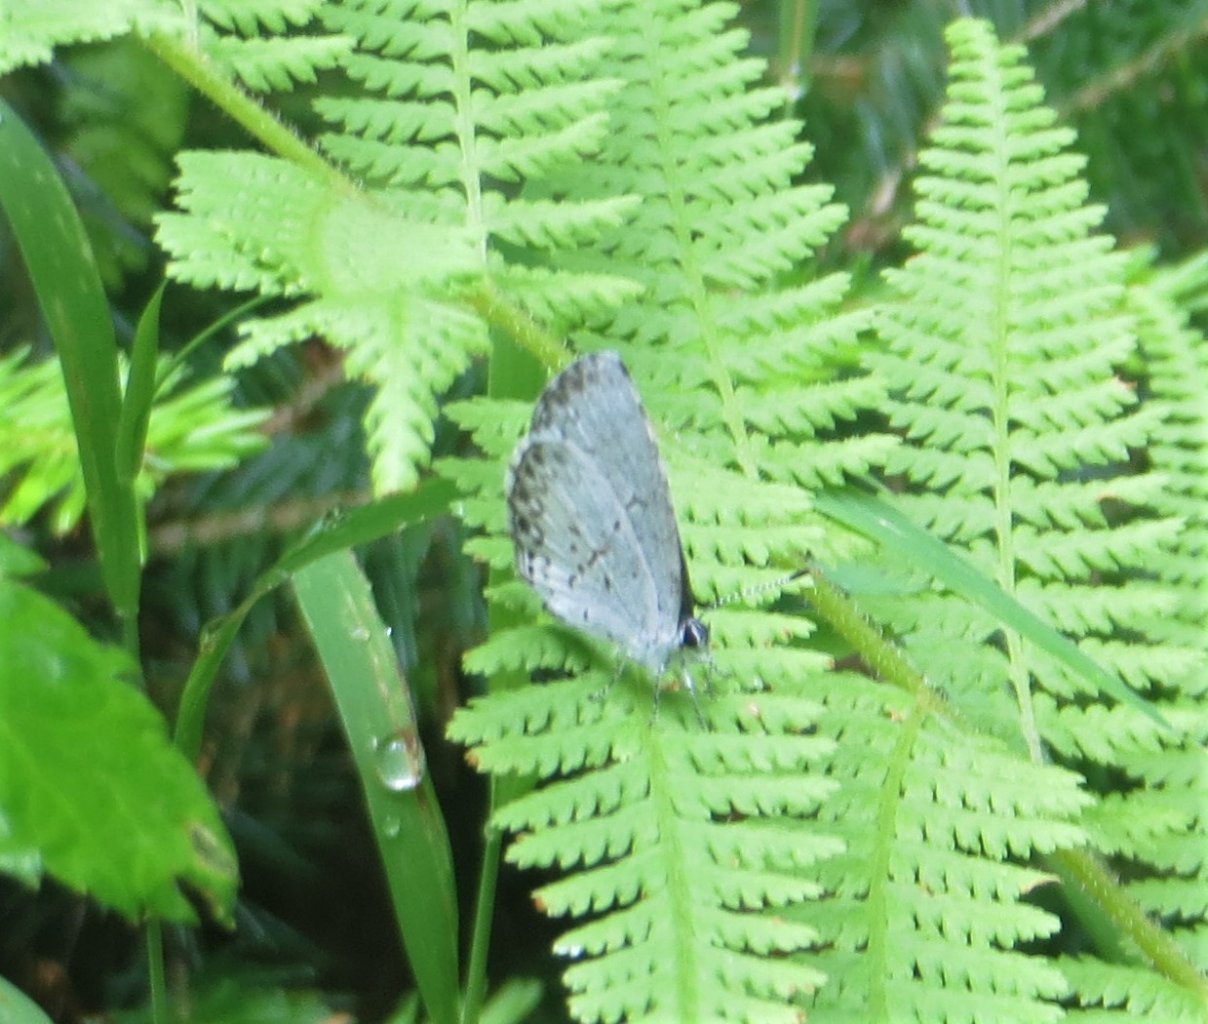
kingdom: Animalia
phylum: Arthropoda
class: Insecta
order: Lepidoptera
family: Lycaenidae
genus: Cyaniris
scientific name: Cyaniris neglecta
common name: Summer Azure
